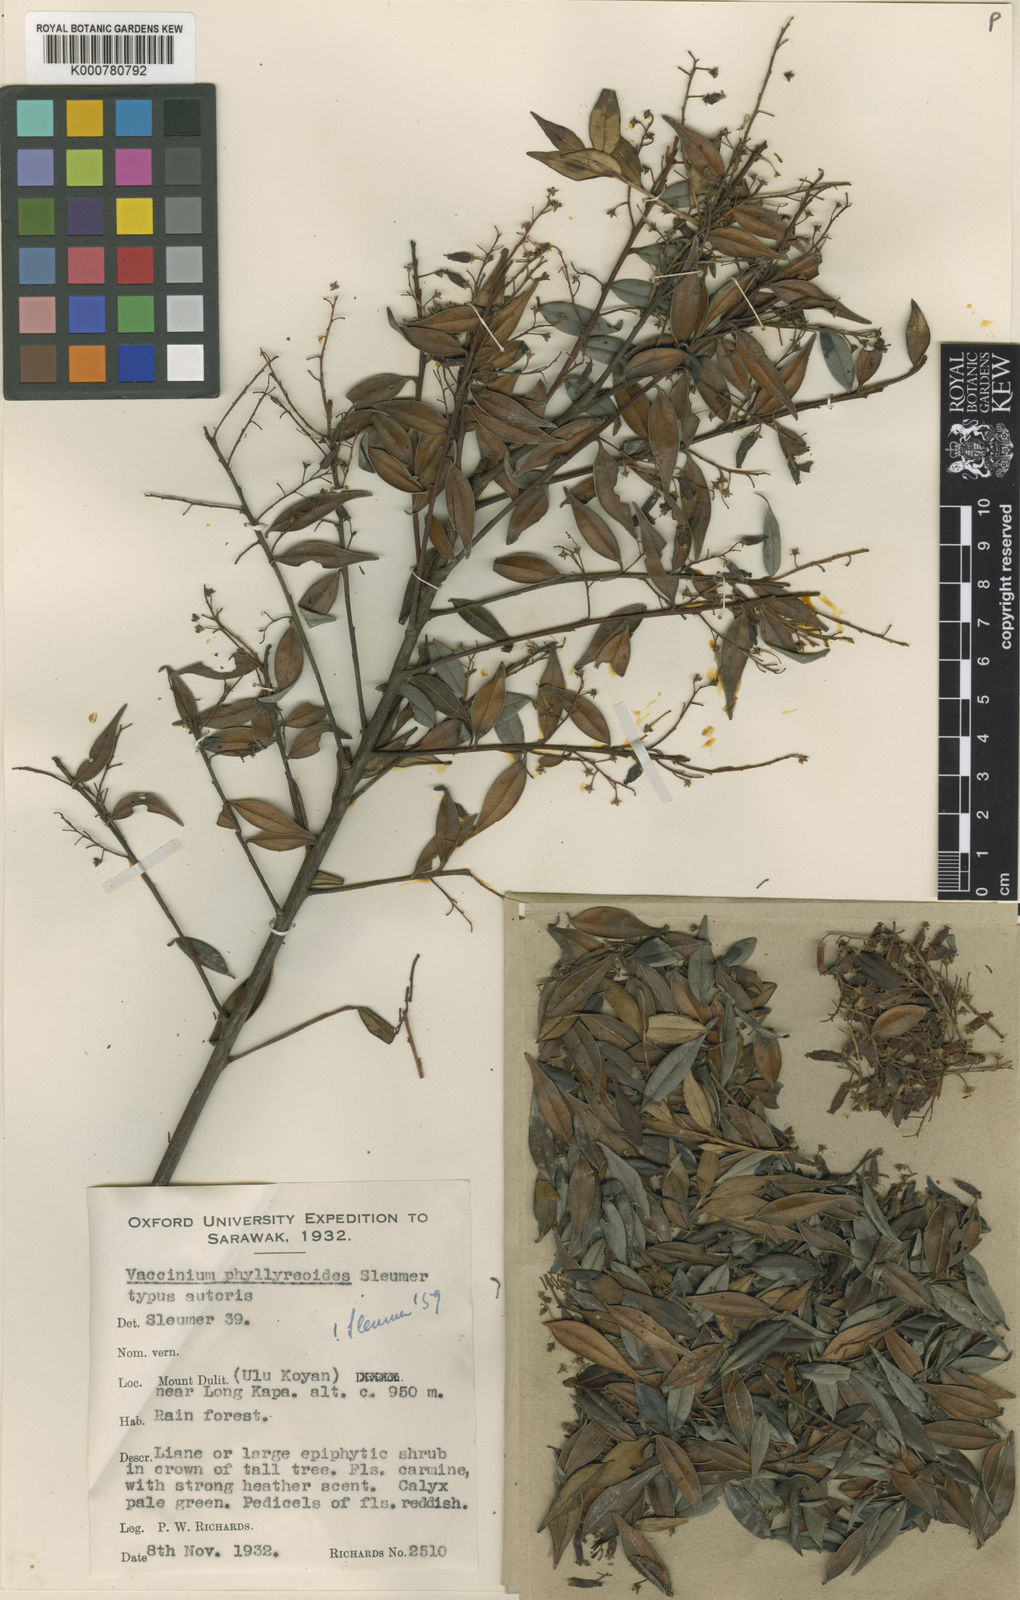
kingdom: Plantae
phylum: Tracheophyta
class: Magnoliopsida
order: Ericales
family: Ericaceae
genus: Vaccinium
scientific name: Vaccinium phillyreoides
